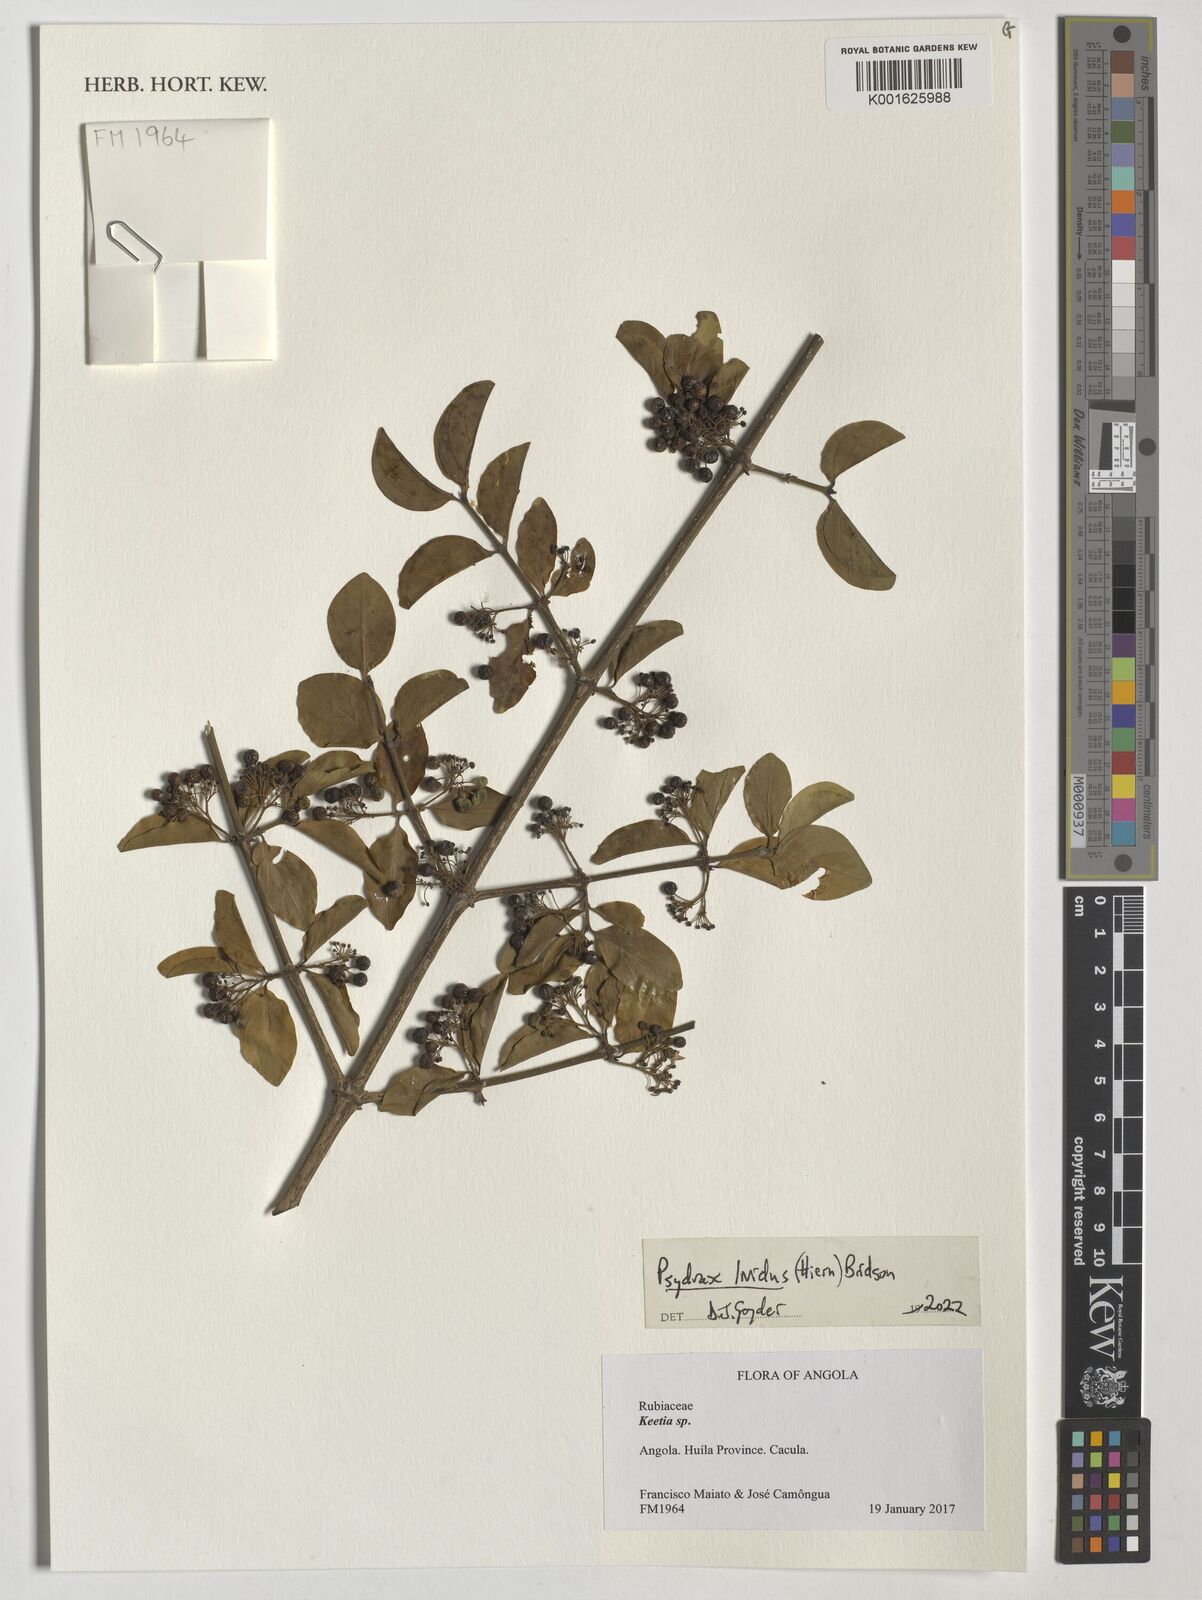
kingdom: Plantae
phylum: Tracheophyta
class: Magnoliopsida
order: Gentianales
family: Rubiaceae
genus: Psydrax
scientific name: Psydrax lividus
